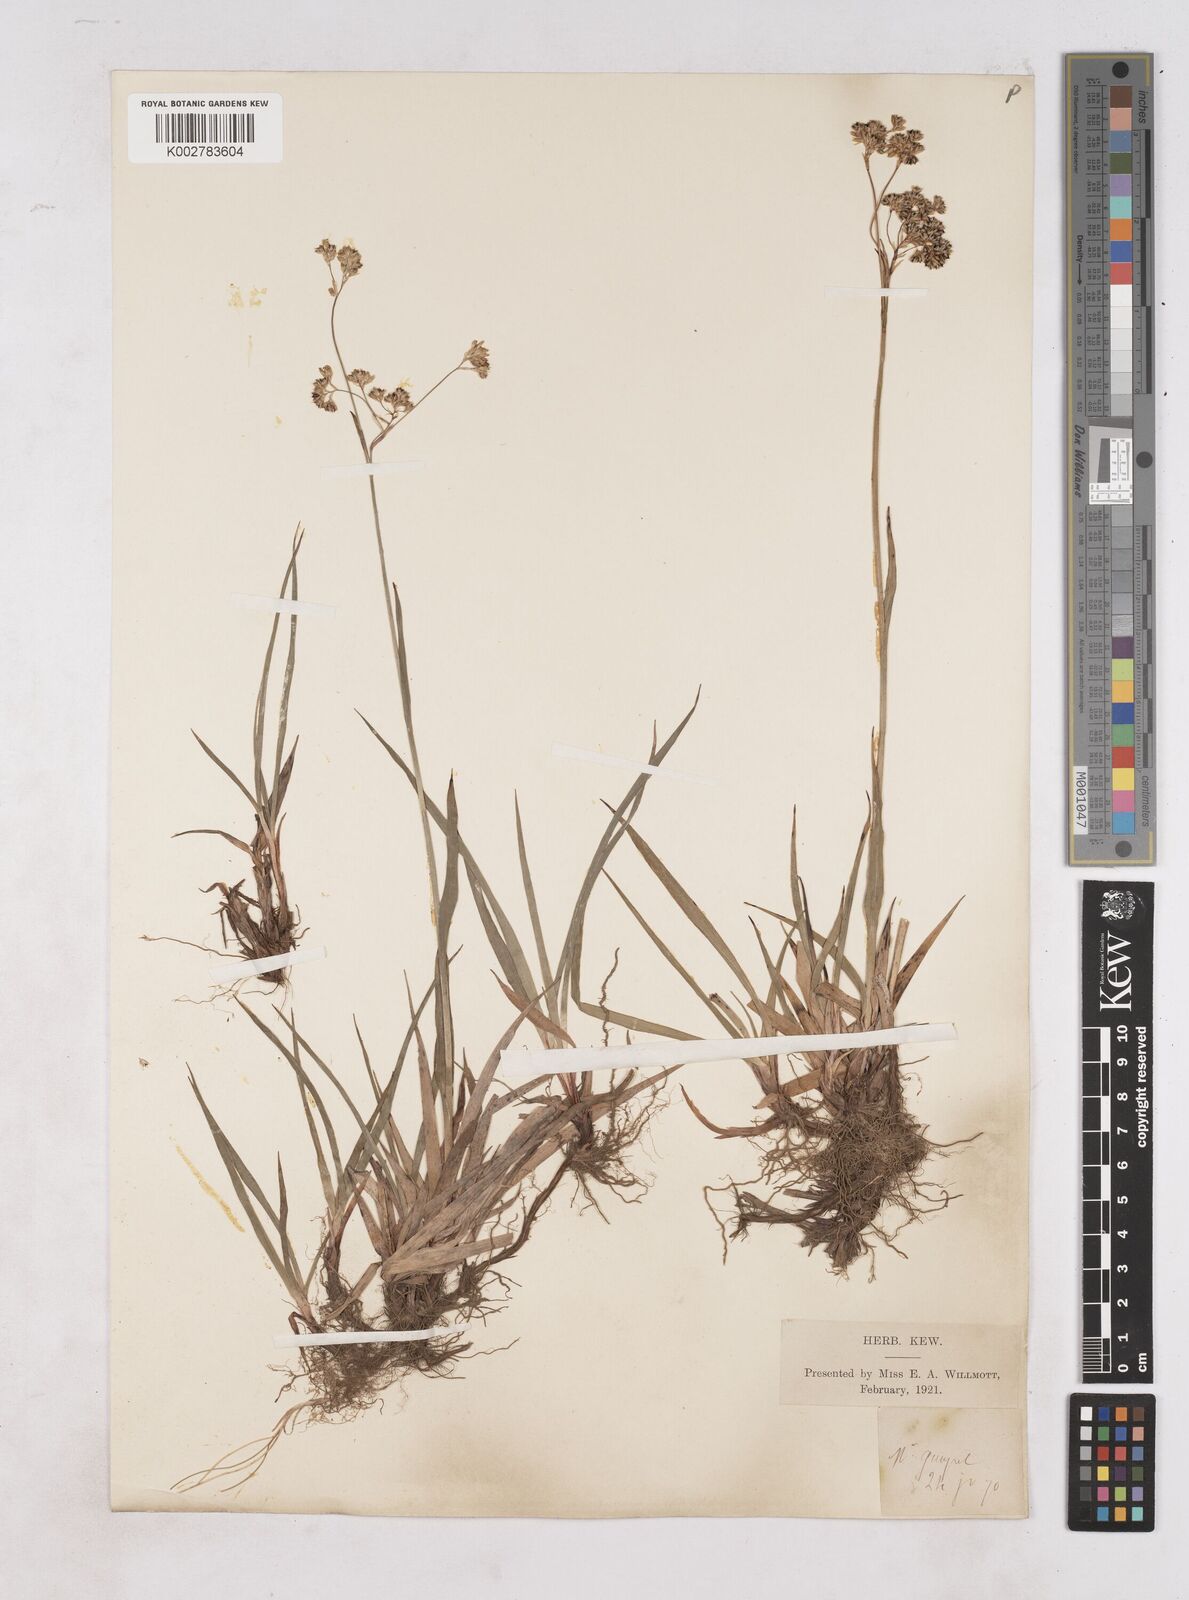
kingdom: Plantae
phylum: Tracheophyta
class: Liliopsida
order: Poales
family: Juncaceae
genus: Luzula
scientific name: Luzula
